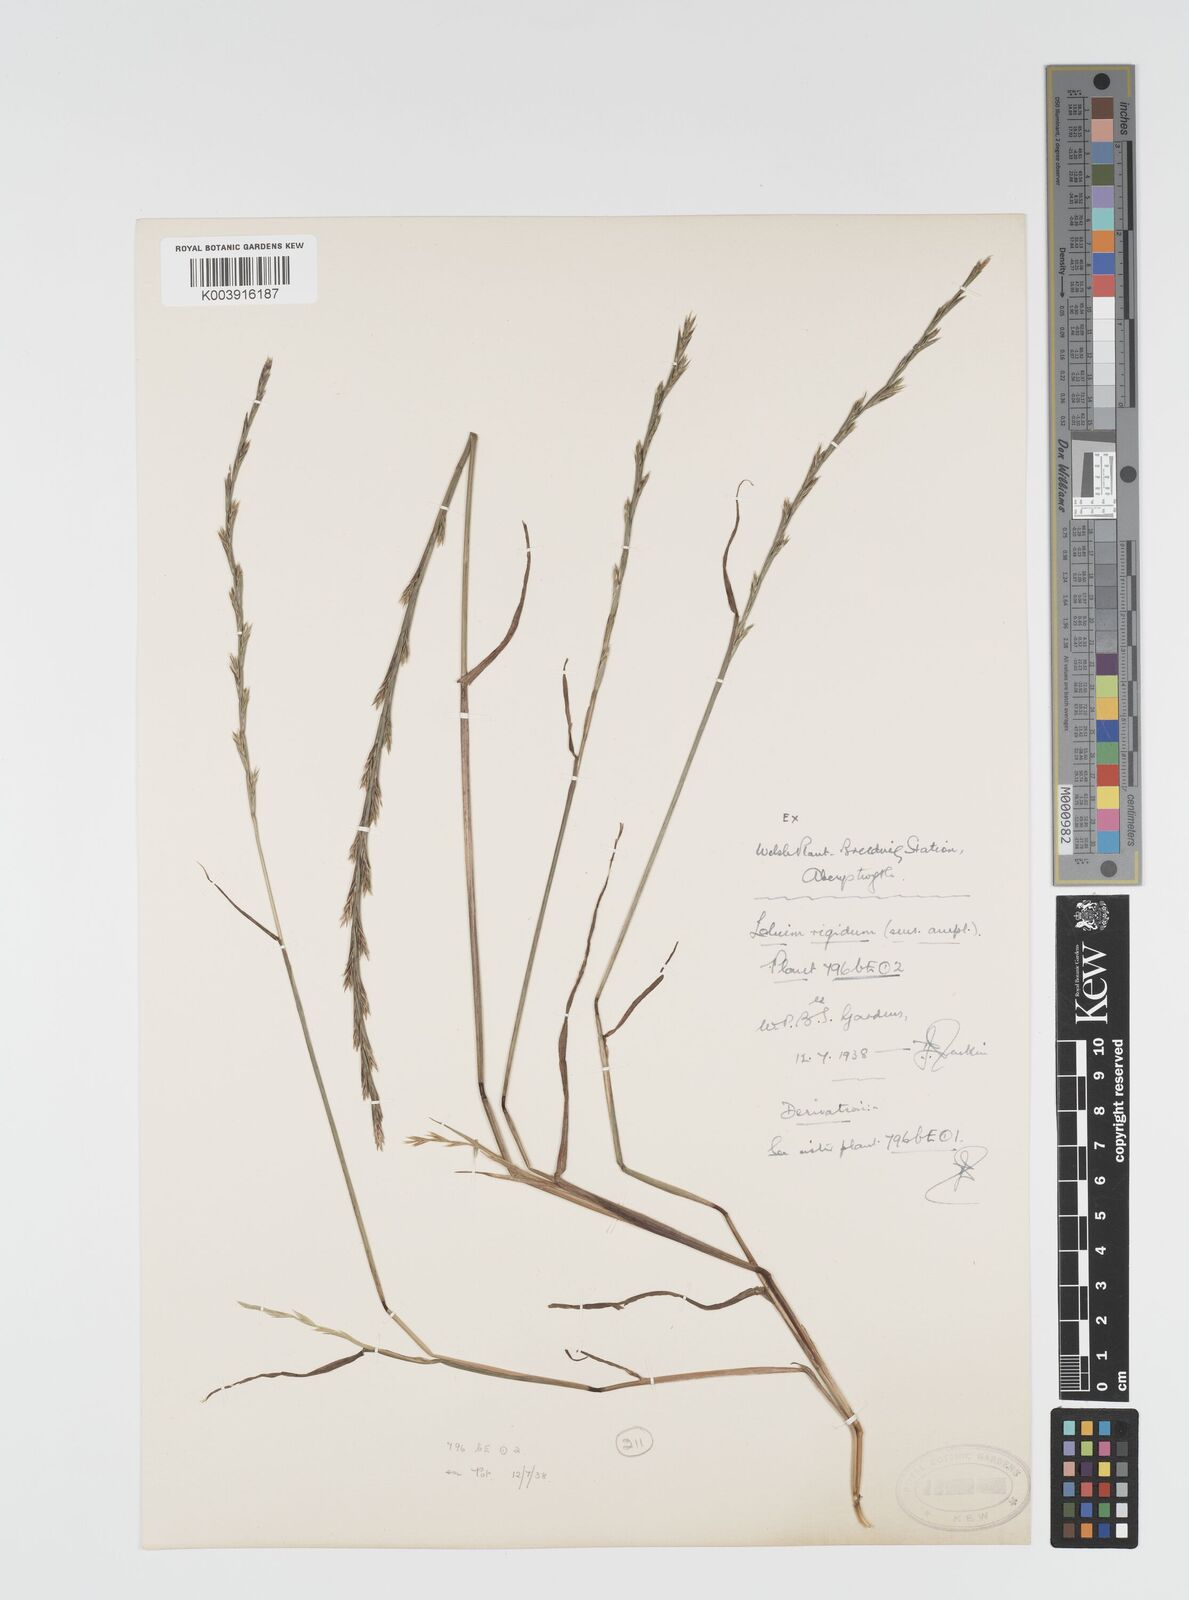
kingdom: Plantae
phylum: Tracheophyta
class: Liliopsida
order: Poales
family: Poaceae
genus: Lolium
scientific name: Lolium rigidum
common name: Wimmera ryegrass
